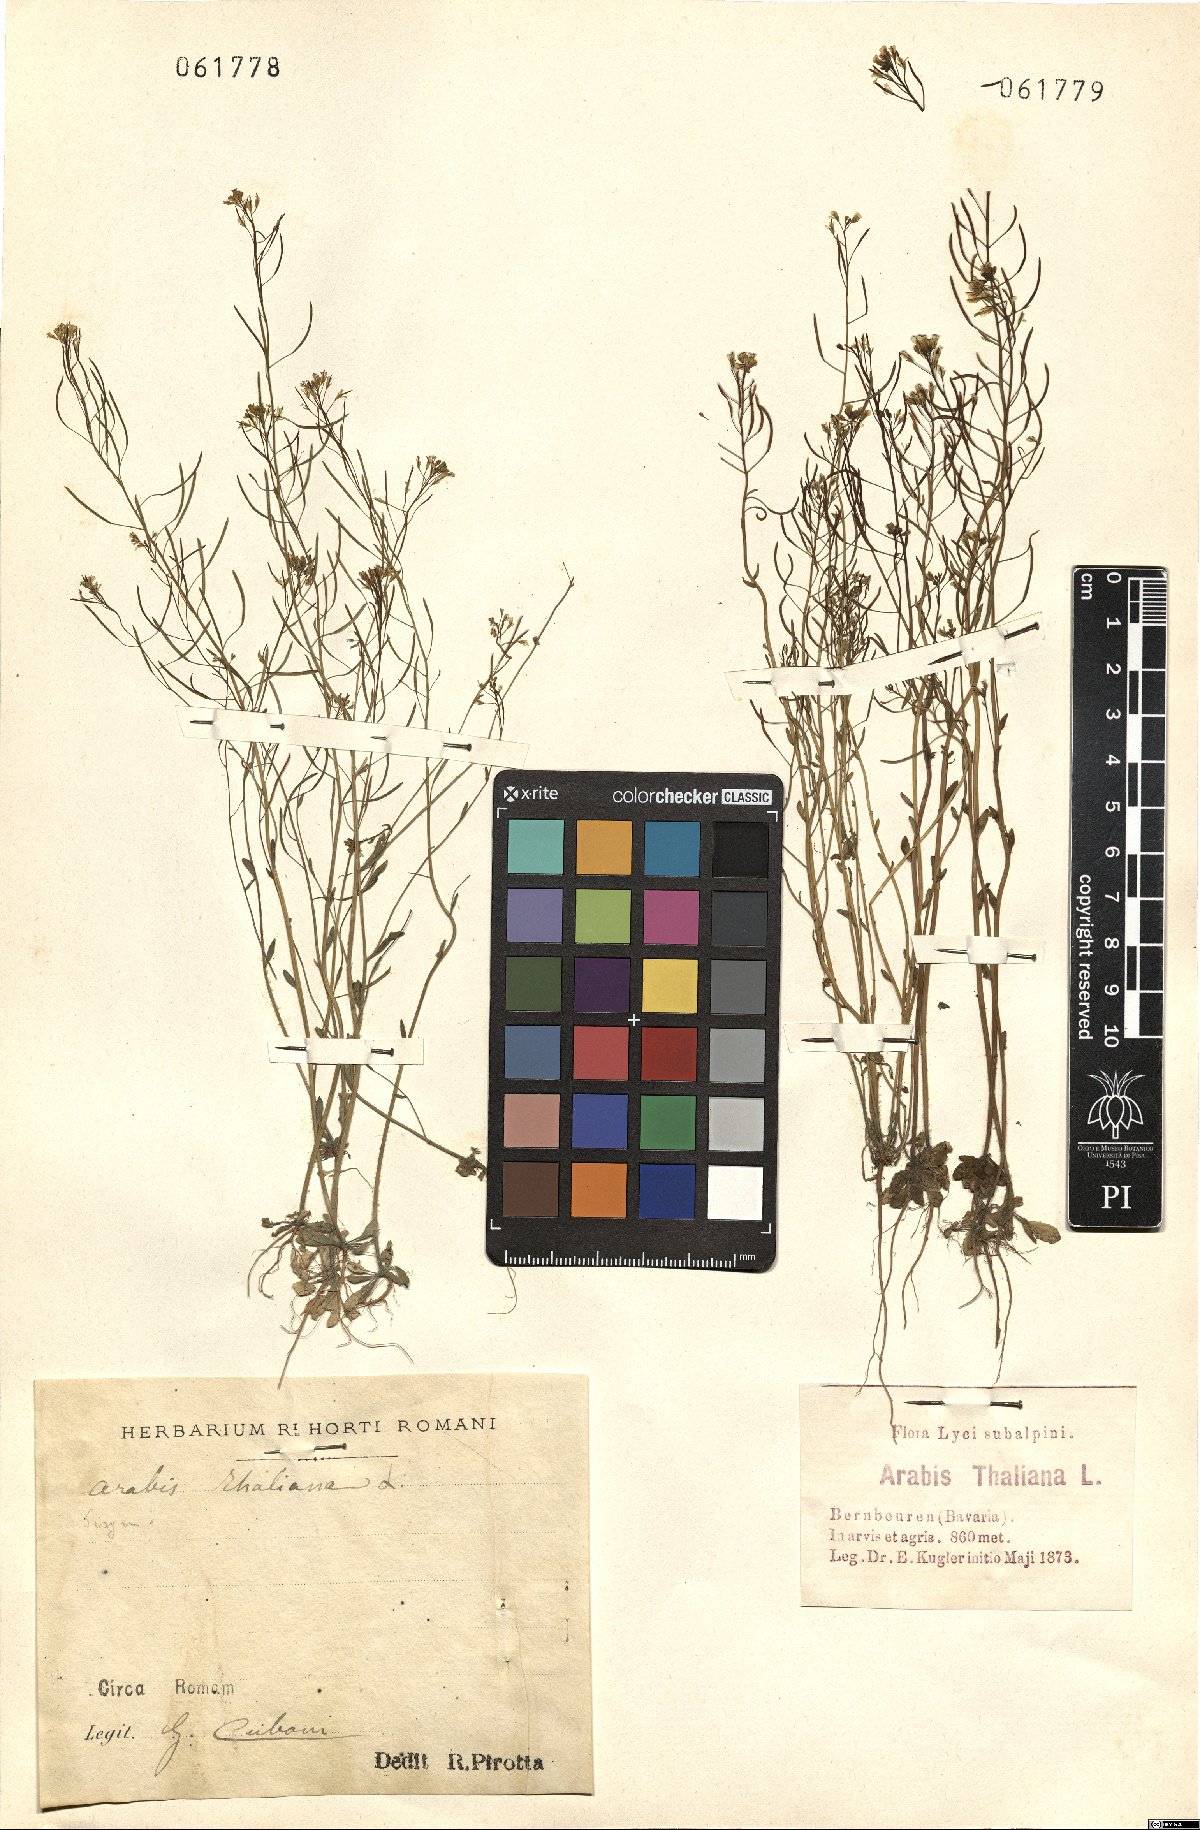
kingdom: Plantae
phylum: Tracheophyta
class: Magnoliopsida
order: Brassicales
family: Brassicaceae
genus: Arabidopsis
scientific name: Arabidopsis thaliana
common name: Thale cress
